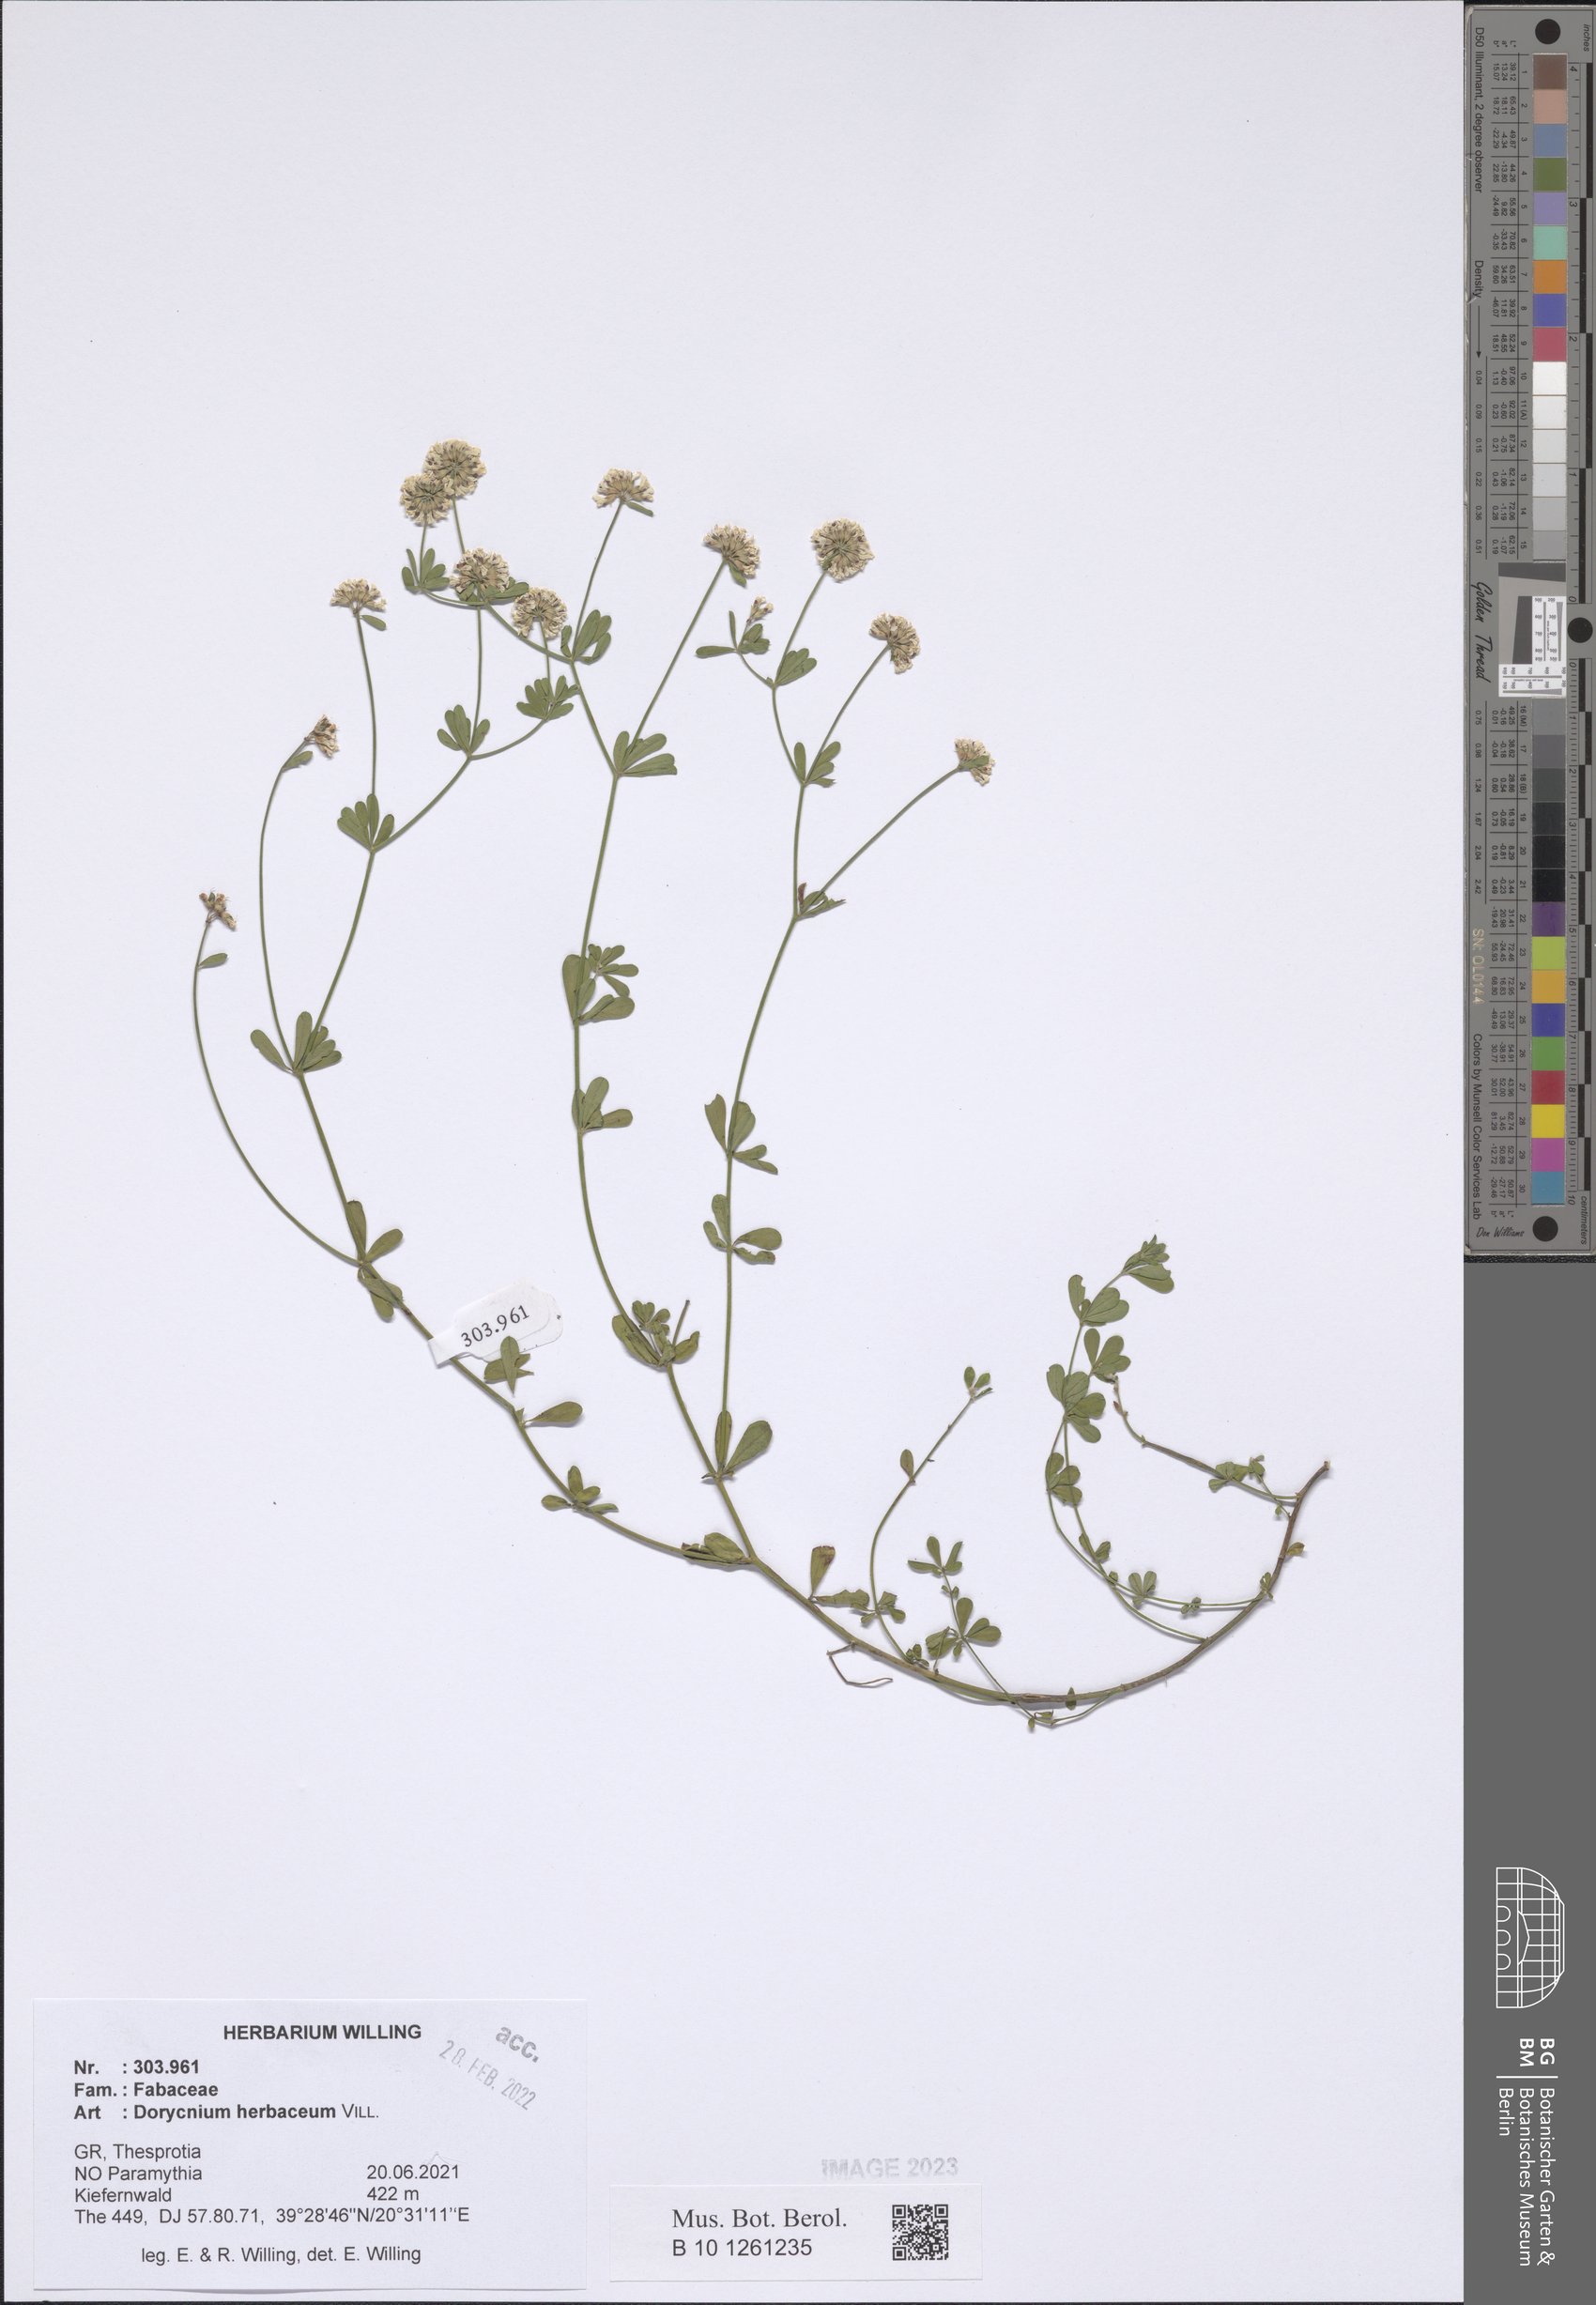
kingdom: Plantae
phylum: Tracheophyta
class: Magnoliopsida
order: Fabales
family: Fabaceae
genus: Lotus
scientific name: Lotus herbaceus
